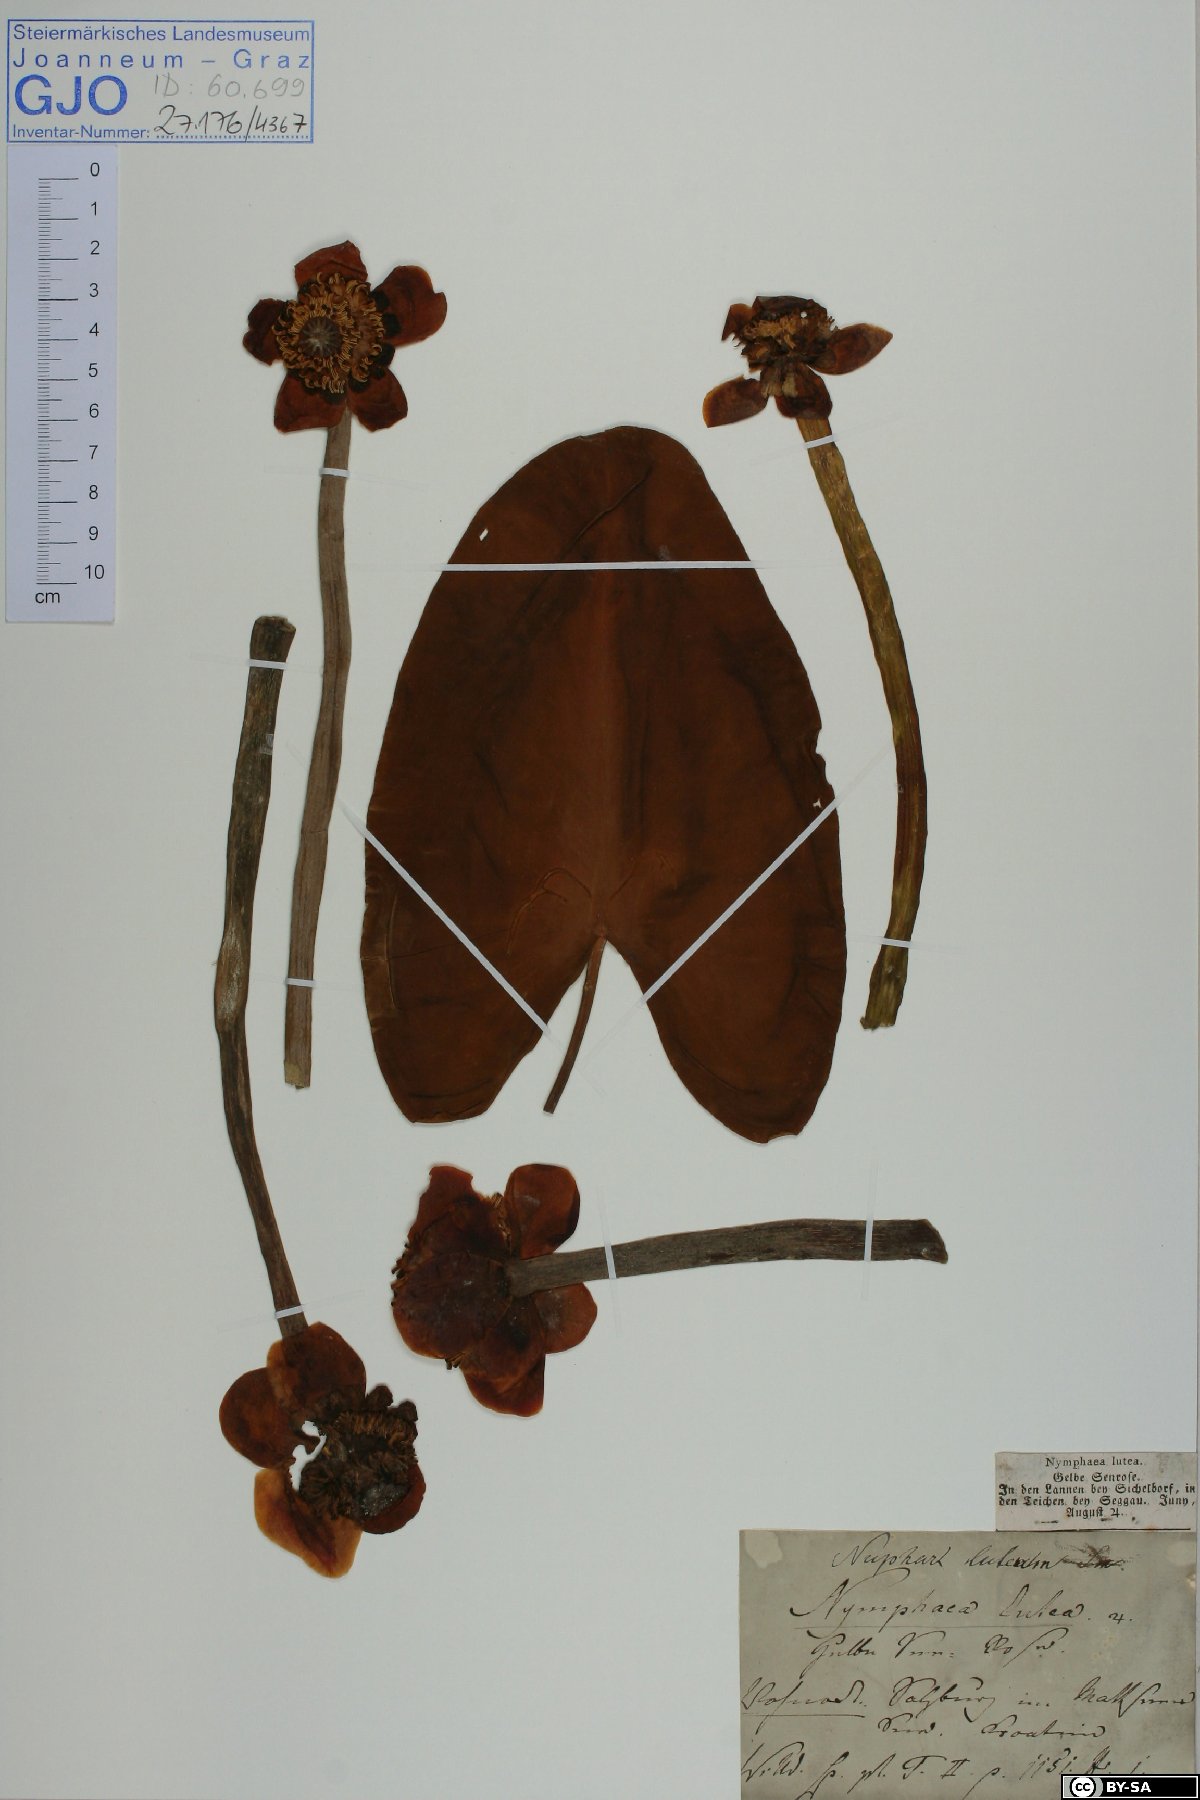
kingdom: Plantae
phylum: Tracheophyta
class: Magnoliopsida
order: Nymphaeales
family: Nymphaeaceae
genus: Nuphar
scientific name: Nuphar lutea
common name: Yellow water-lily
